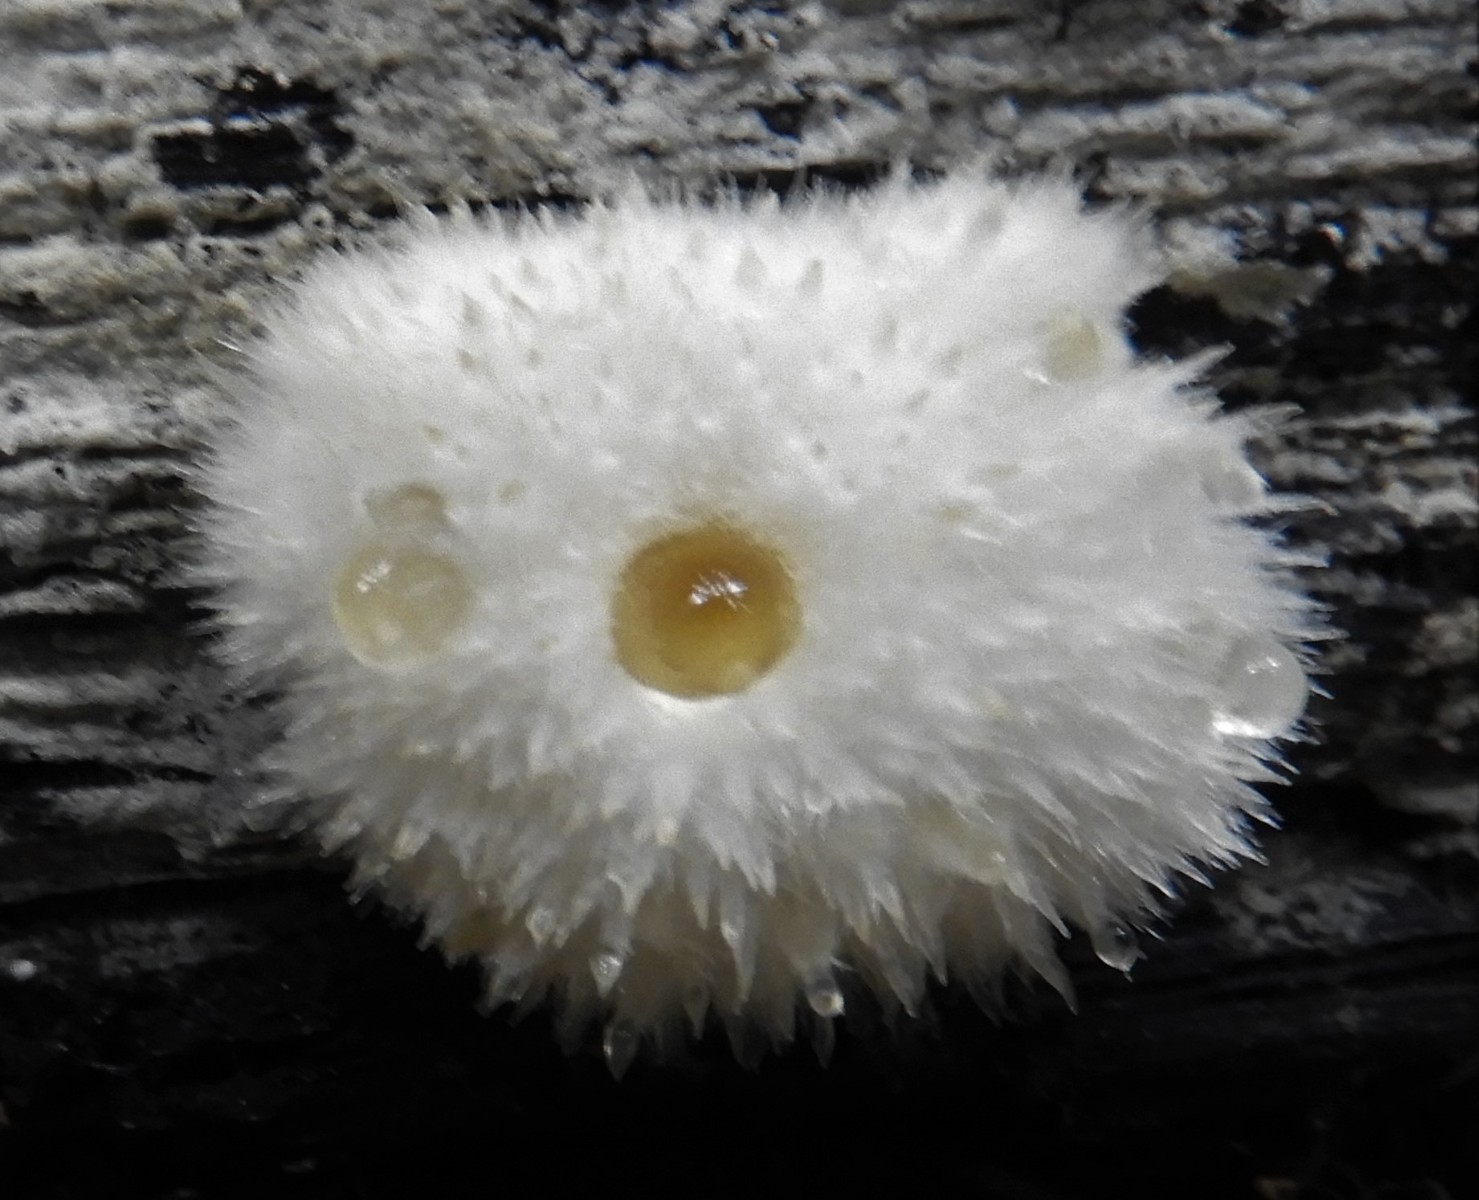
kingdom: Fungi
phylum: Basidiomycota
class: Agaricomycetes
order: Polyporales
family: Dacryobolaceae
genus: Postia
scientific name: Postia ptychogaster
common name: støvende kødporesvamp
